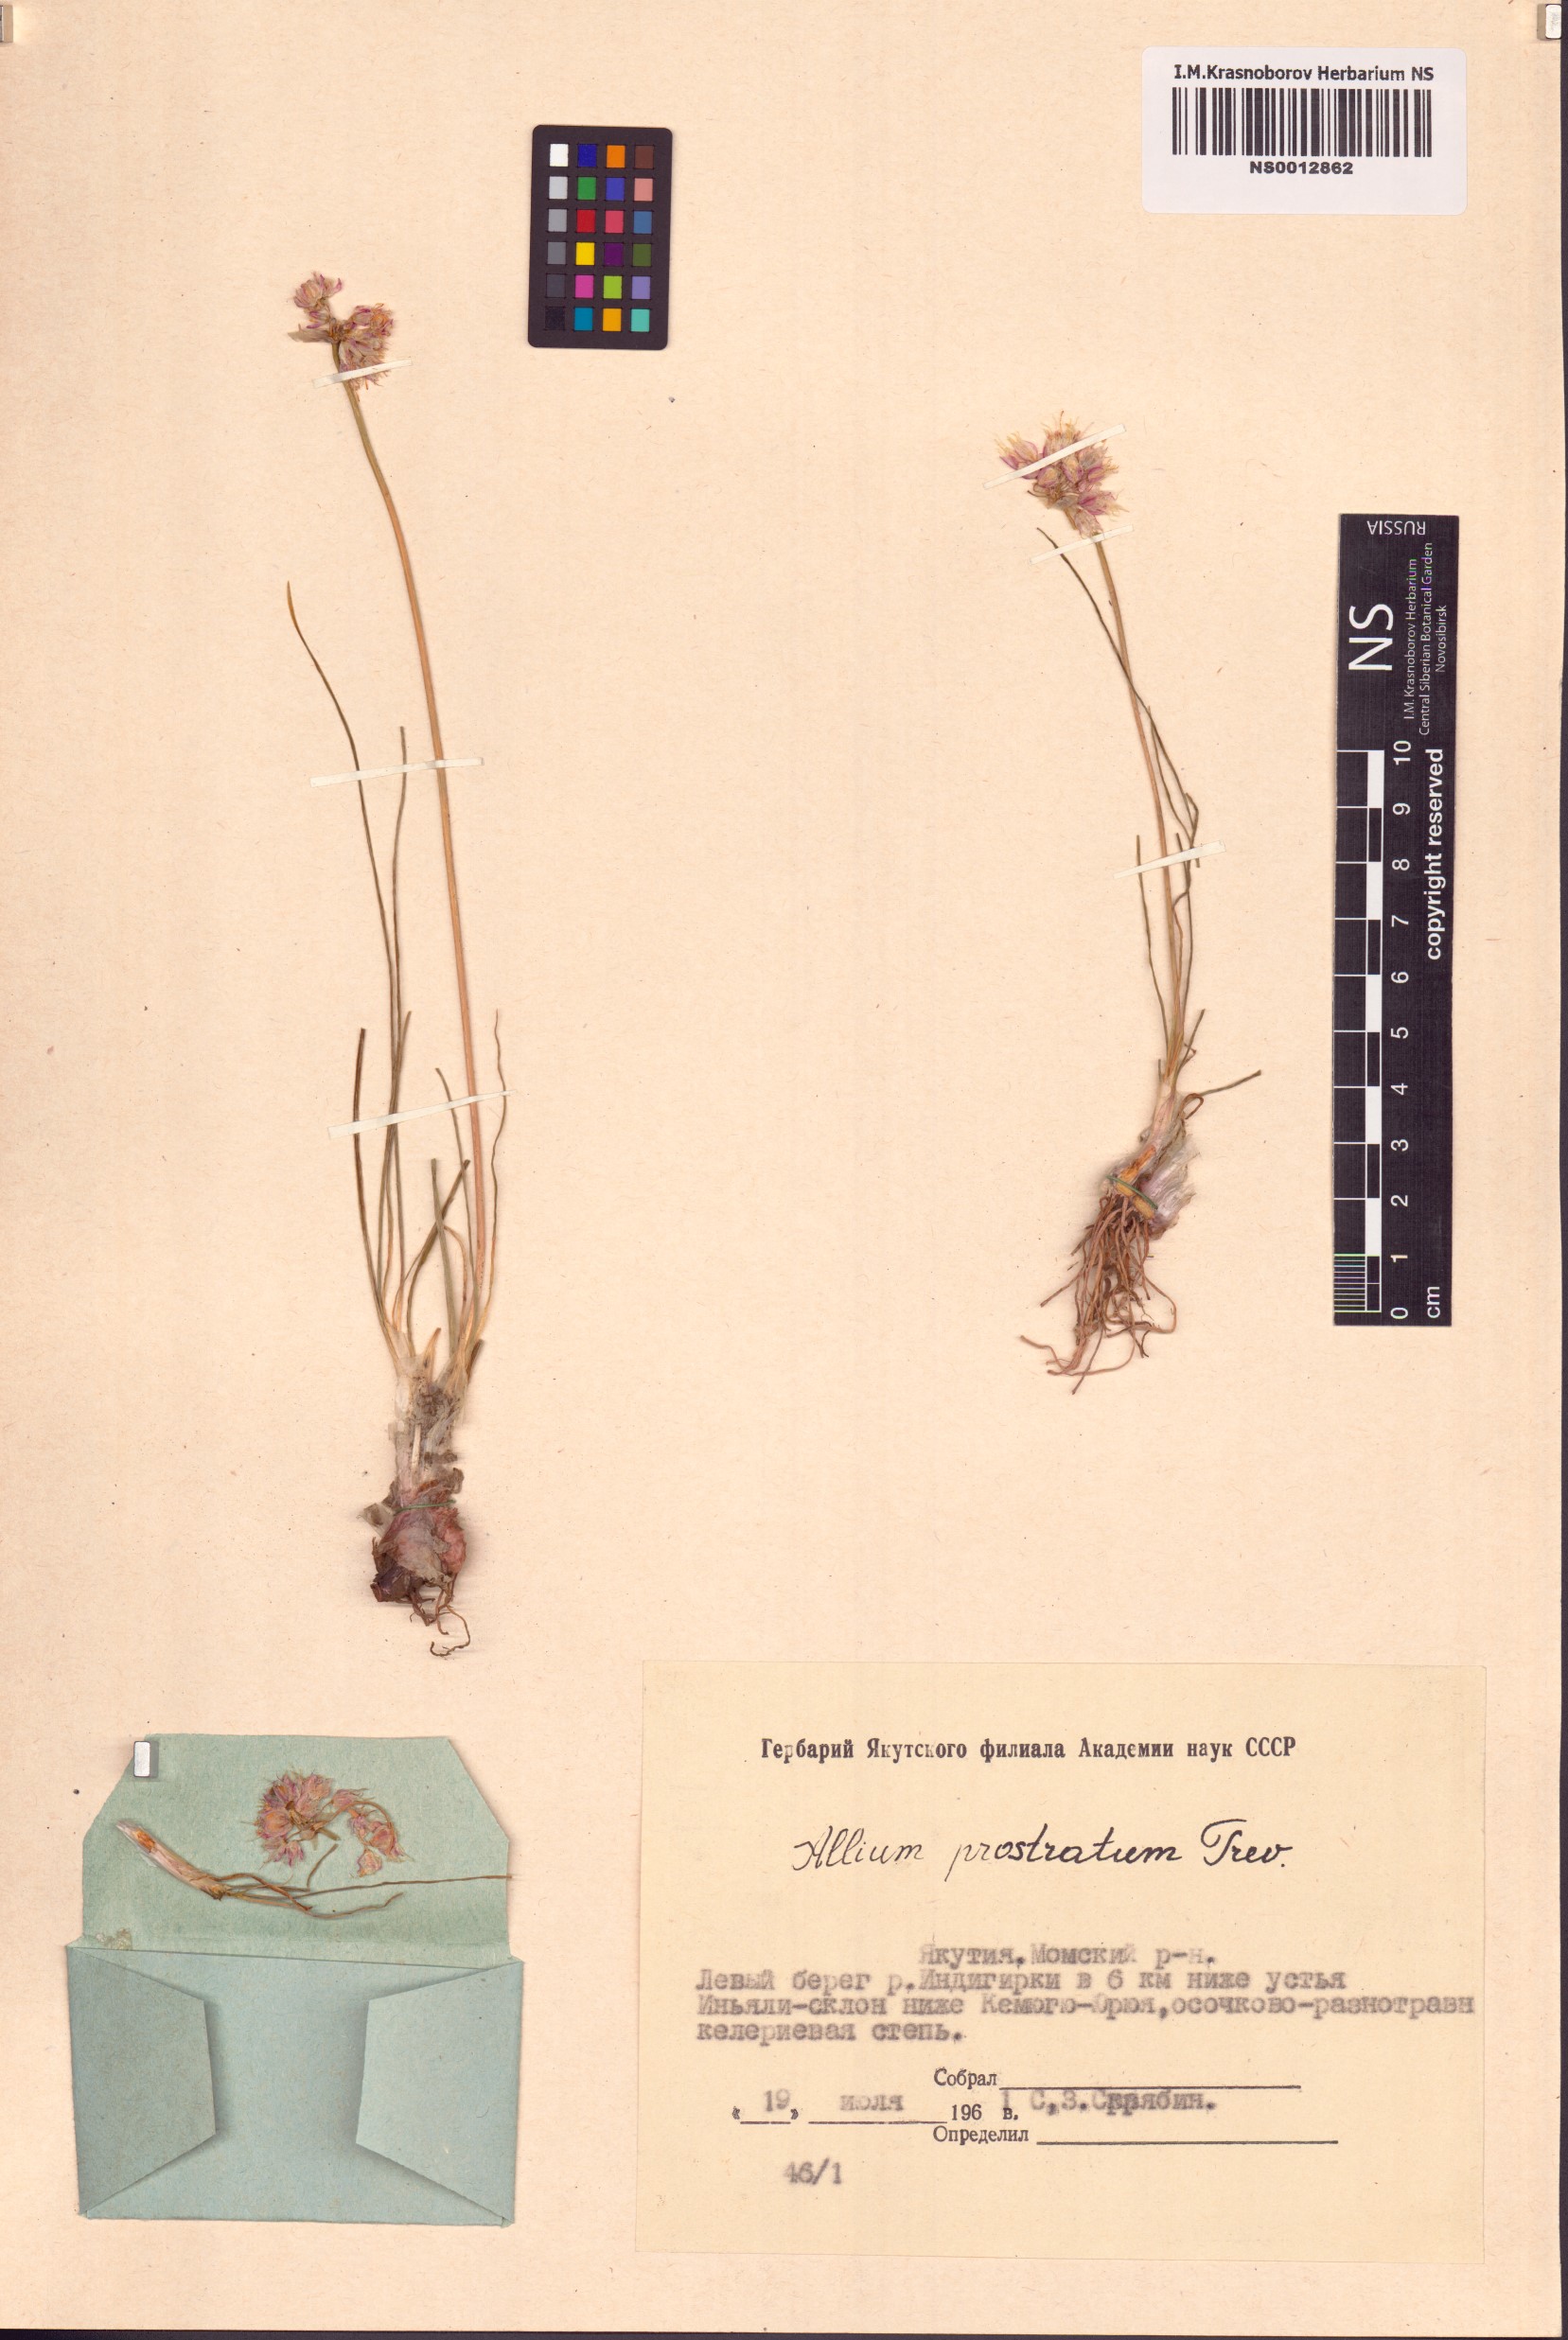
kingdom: Plantae
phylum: Tracheophyta
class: Liliopsida
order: Asparagales
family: Amaryllidaceae
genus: Allium
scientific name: Allium prostratum
